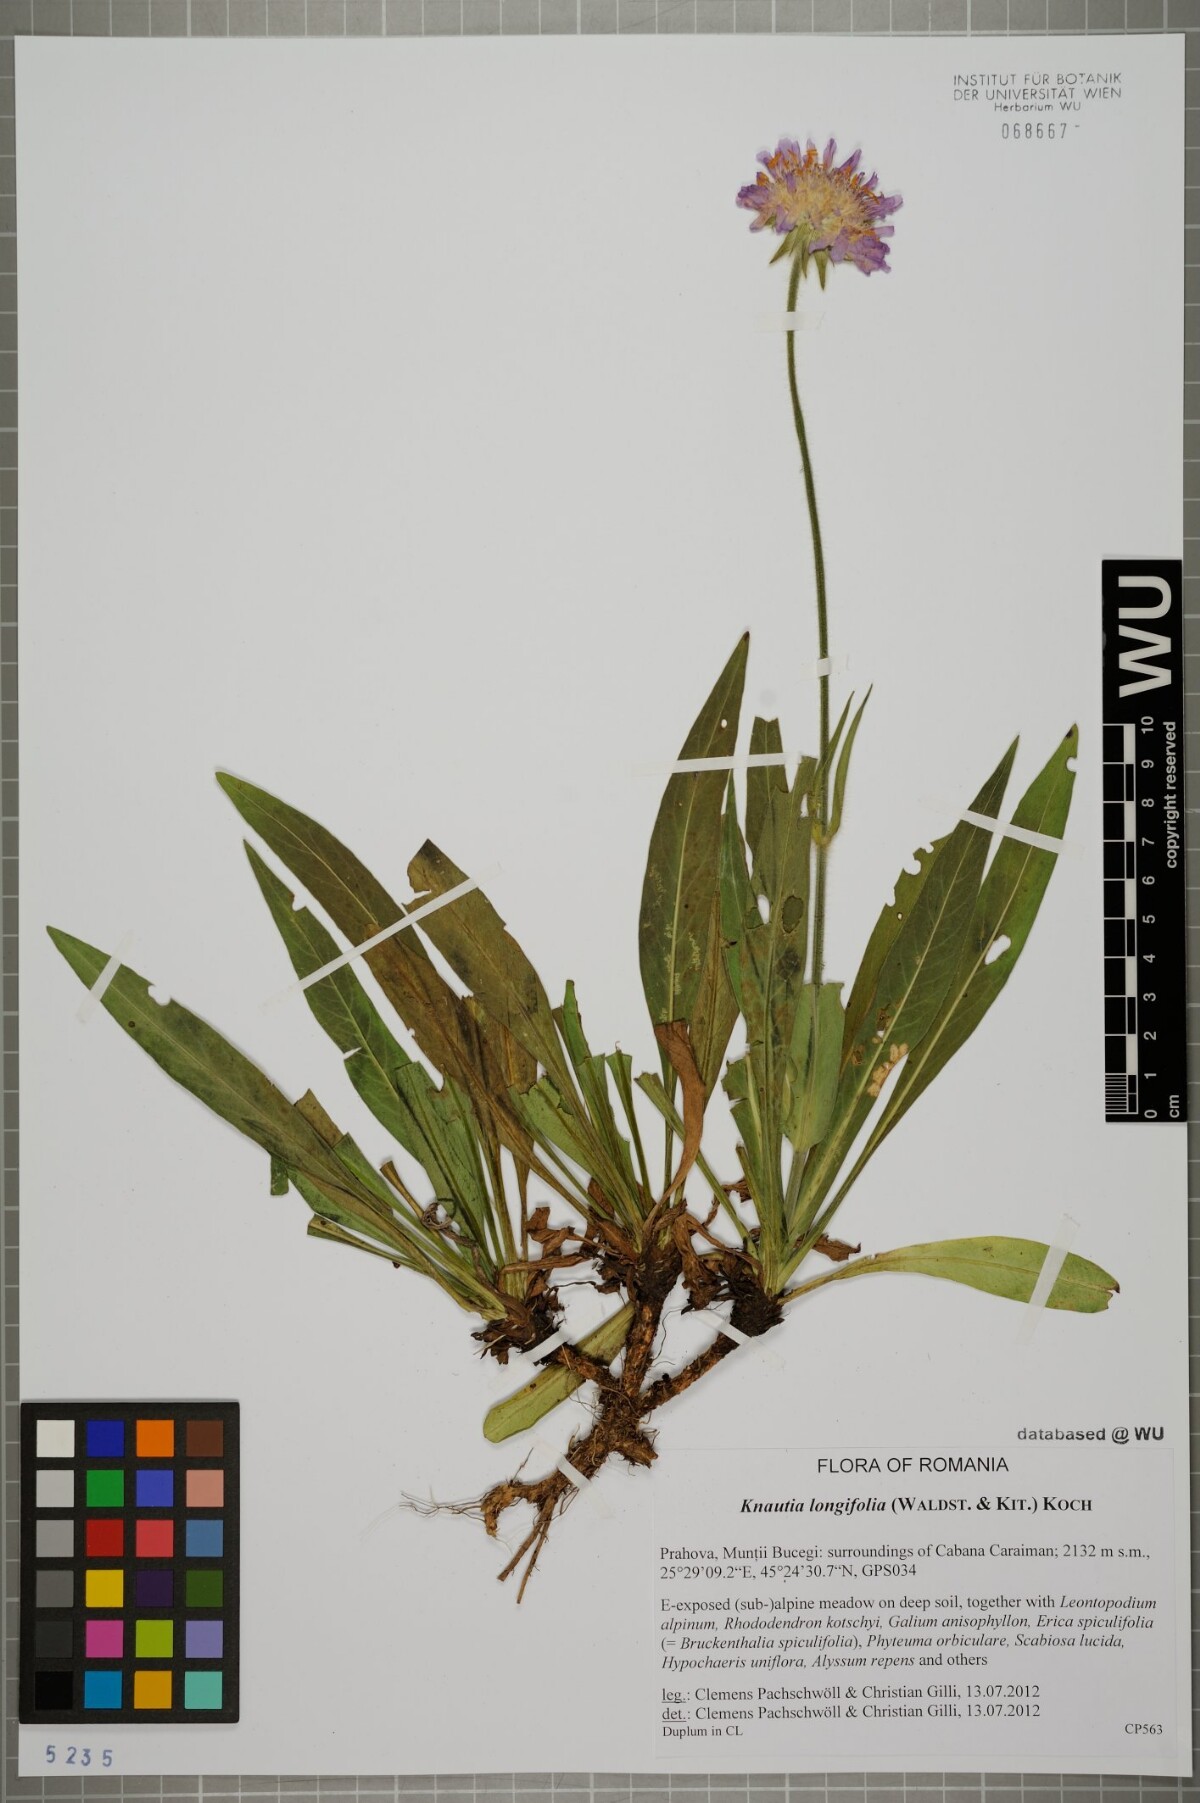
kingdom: Plantae
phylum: Tracheophyta
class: Magnoliopsida
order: Dipsacales
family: Caprifoliaceae
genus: Knautia
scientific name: Knautia longifolia
